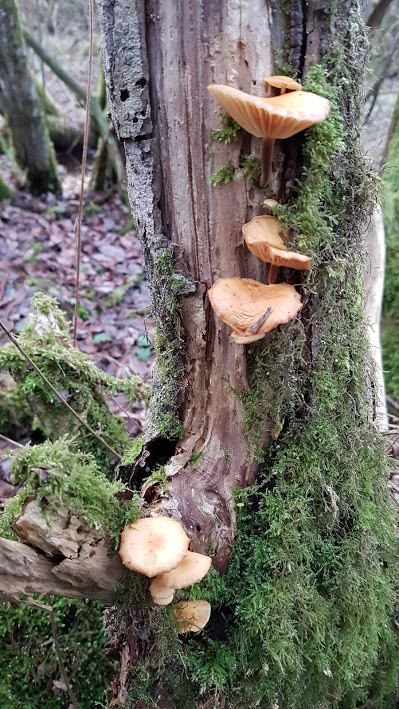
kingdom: Fungi
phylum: Basidiomycota
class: Agaricomycetes
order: Agaricales
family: Physalacriaceae
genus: Flammulina
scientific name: Flammulina
